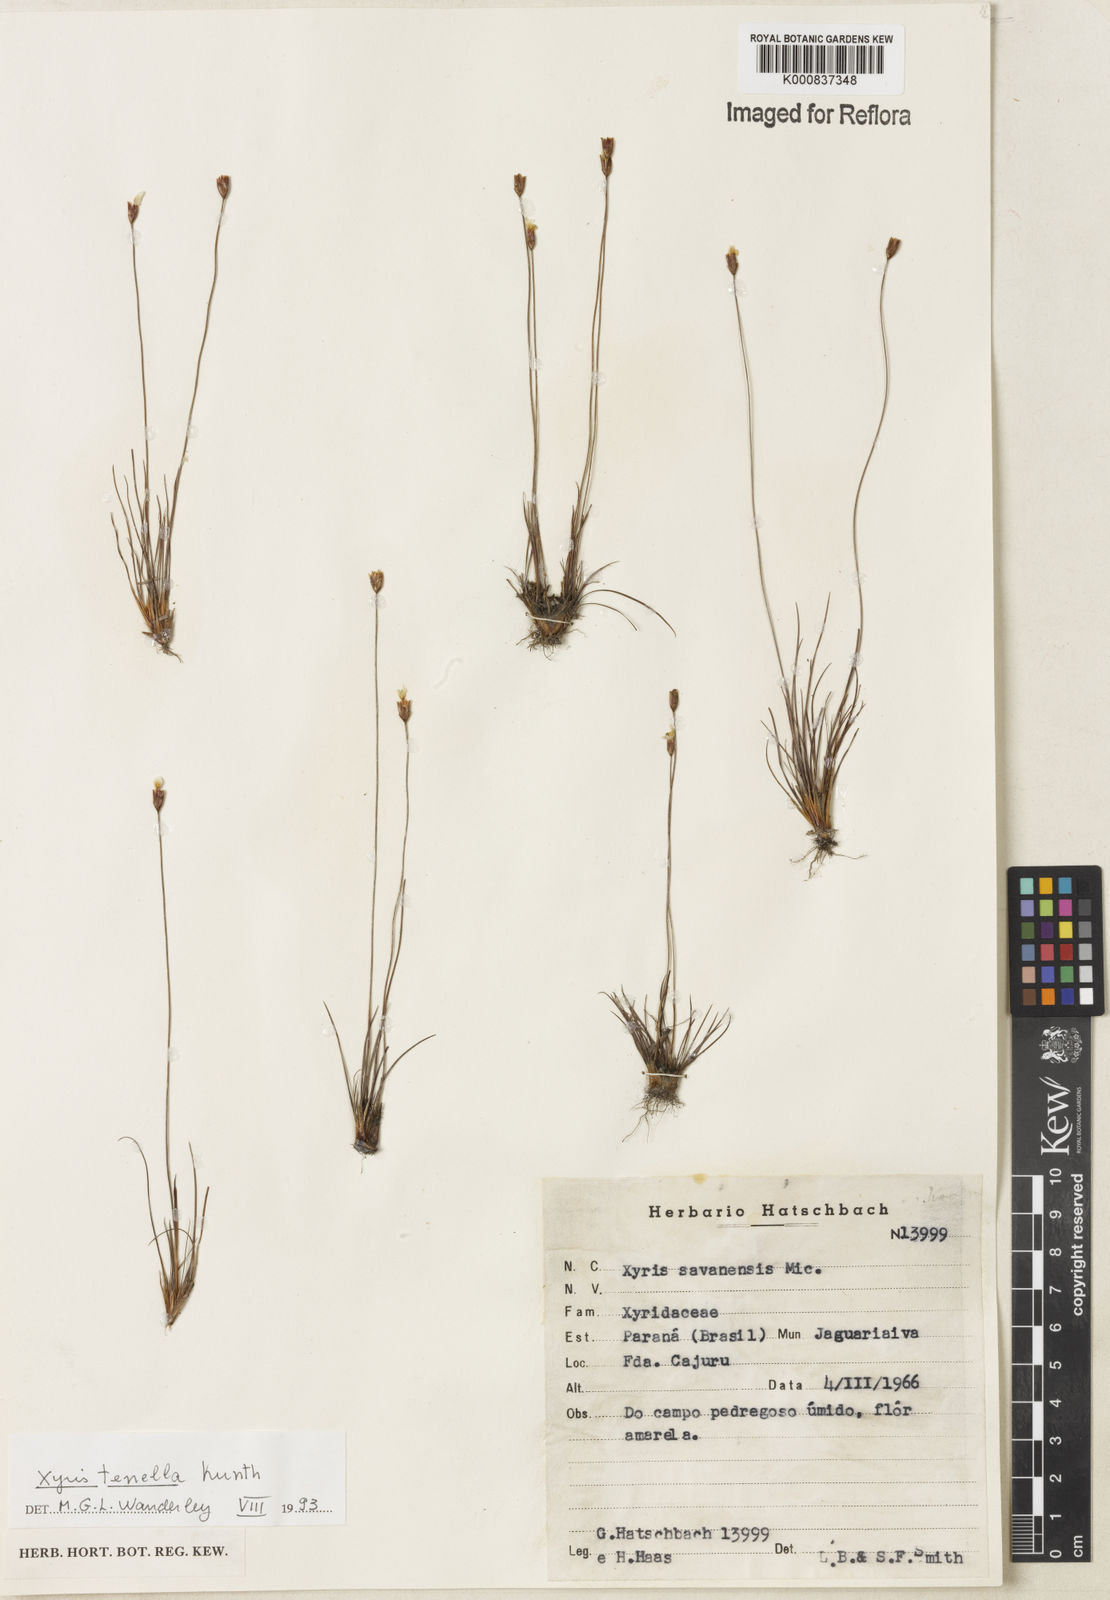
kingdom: Plantae
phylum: Tracheophyta
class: Liliopsida
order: Poales
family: Xyridaceae
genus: Xyris
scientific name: Xyris tenella
